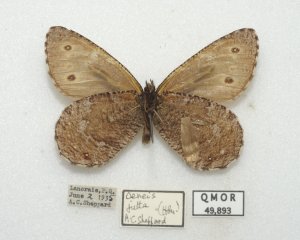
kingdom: Animalia
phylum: Arthropoda
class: Insecta
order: Lepidoptera
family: Nymphalidae
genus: Oeneis
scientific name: Oeneis jutta
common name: Jutta Arctic
